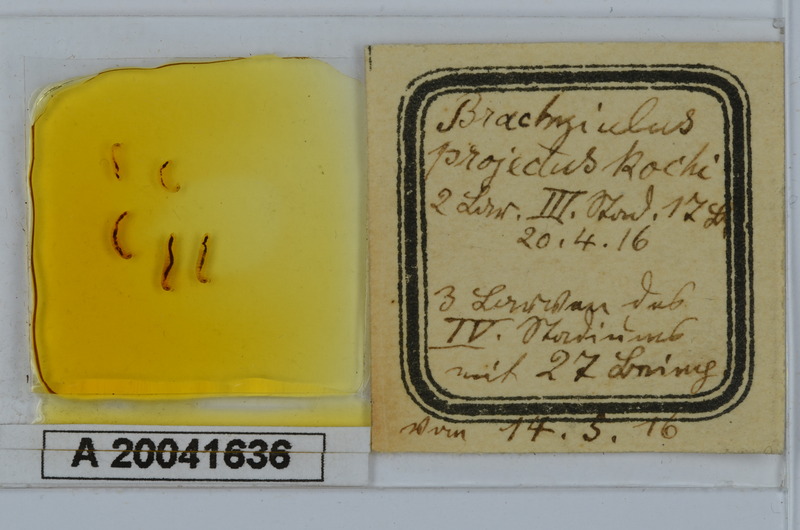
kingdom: Animalia
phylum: Arthropoda
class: Diplopoda
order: Julida
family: Julidae
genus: Megaphyllum
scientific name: Megaphyllum projectum
